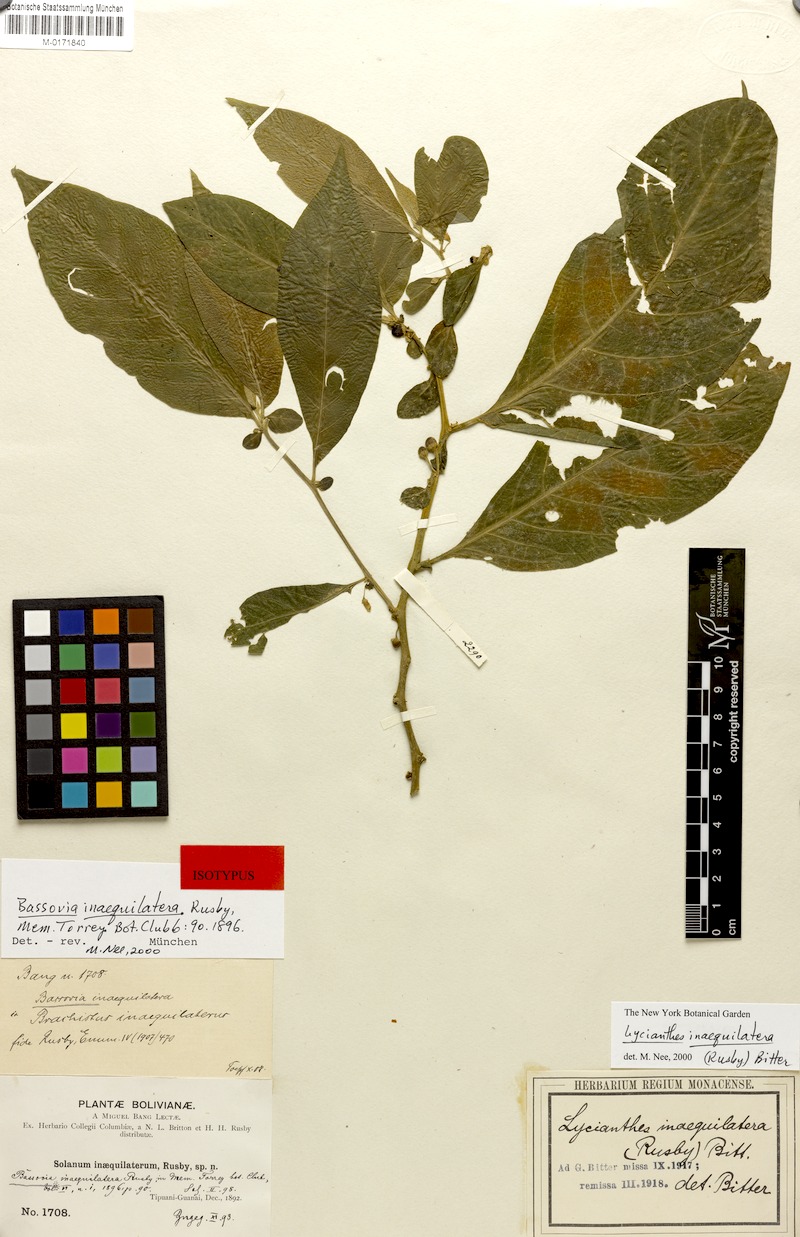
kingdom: Plantae
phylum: Tracheophyta
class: Magnoliopsida
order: Solanales
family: Solanaceae
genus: Lycianthes
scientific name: Lycianthes inaequilatera
